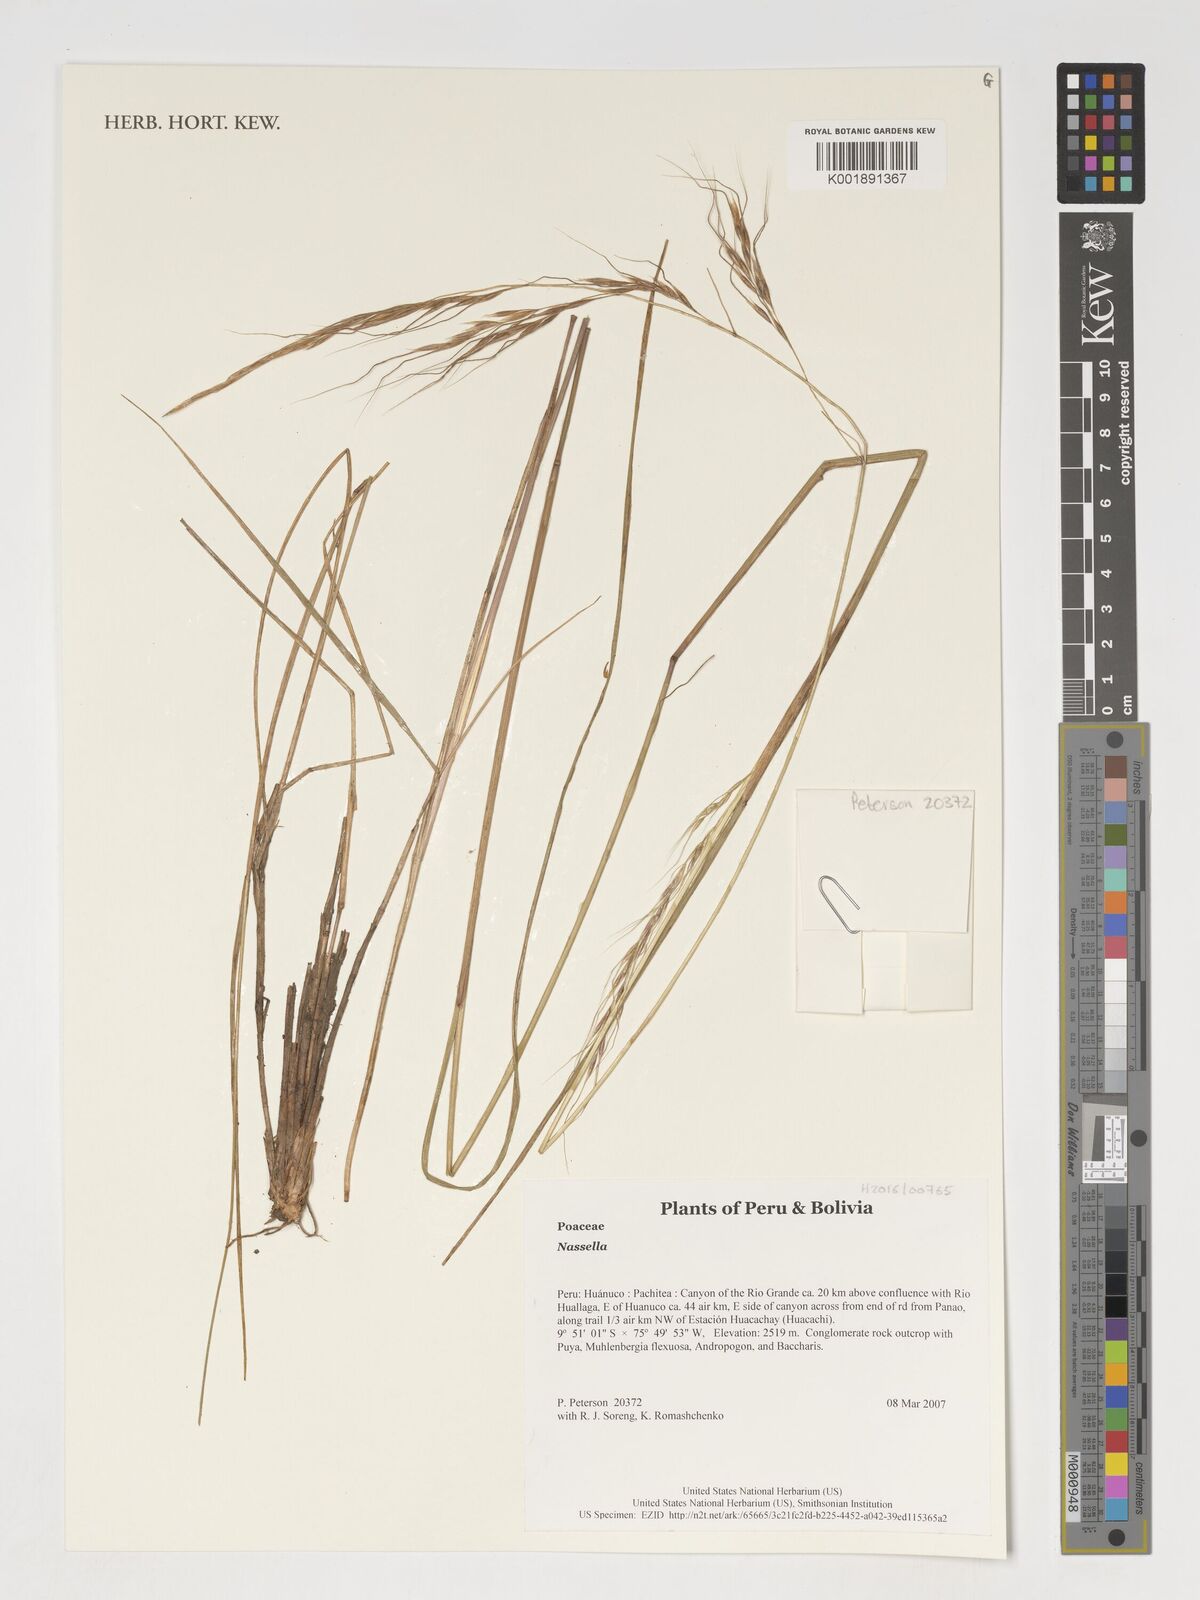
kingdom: Plantae
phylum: Tracheophyta
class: Liliopsida
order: Poales
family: Poaceae
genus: Andropogon
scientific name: Andropogon
